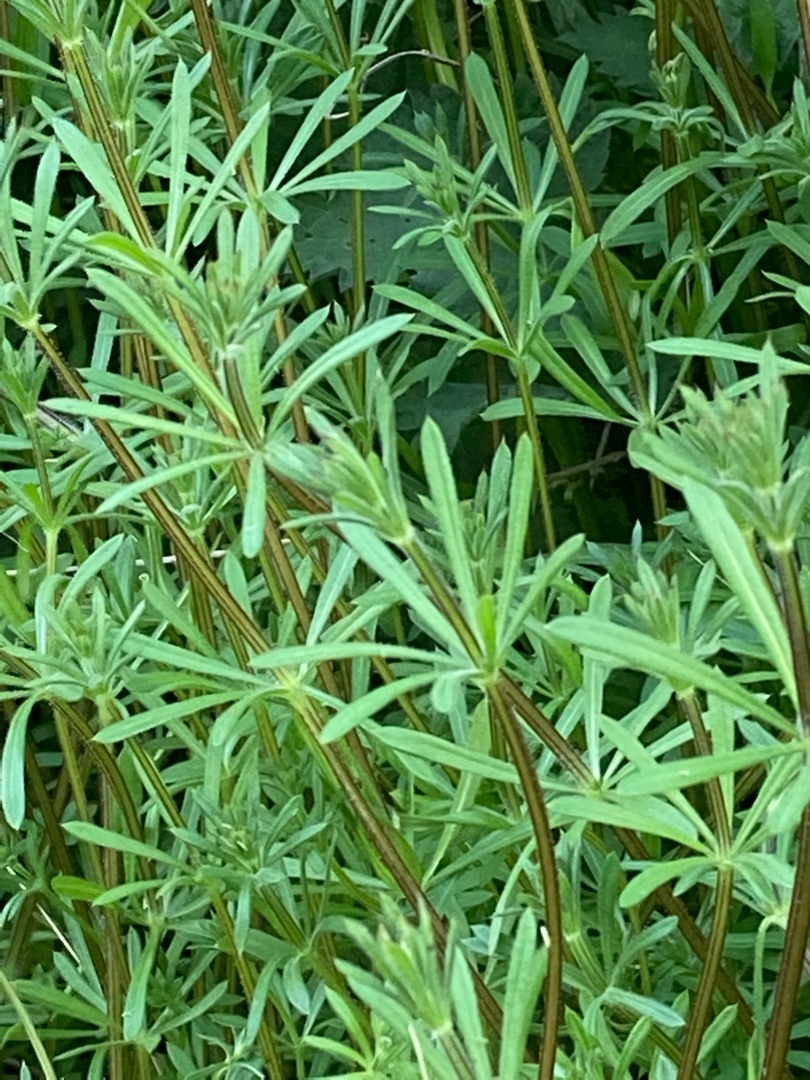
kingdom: Plantae
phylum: Tracheophyta
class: Magnoliopsida
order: Gentianales
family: Rubiaceae
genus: Galium
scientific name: Galium aparine
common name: Burre-snerre
